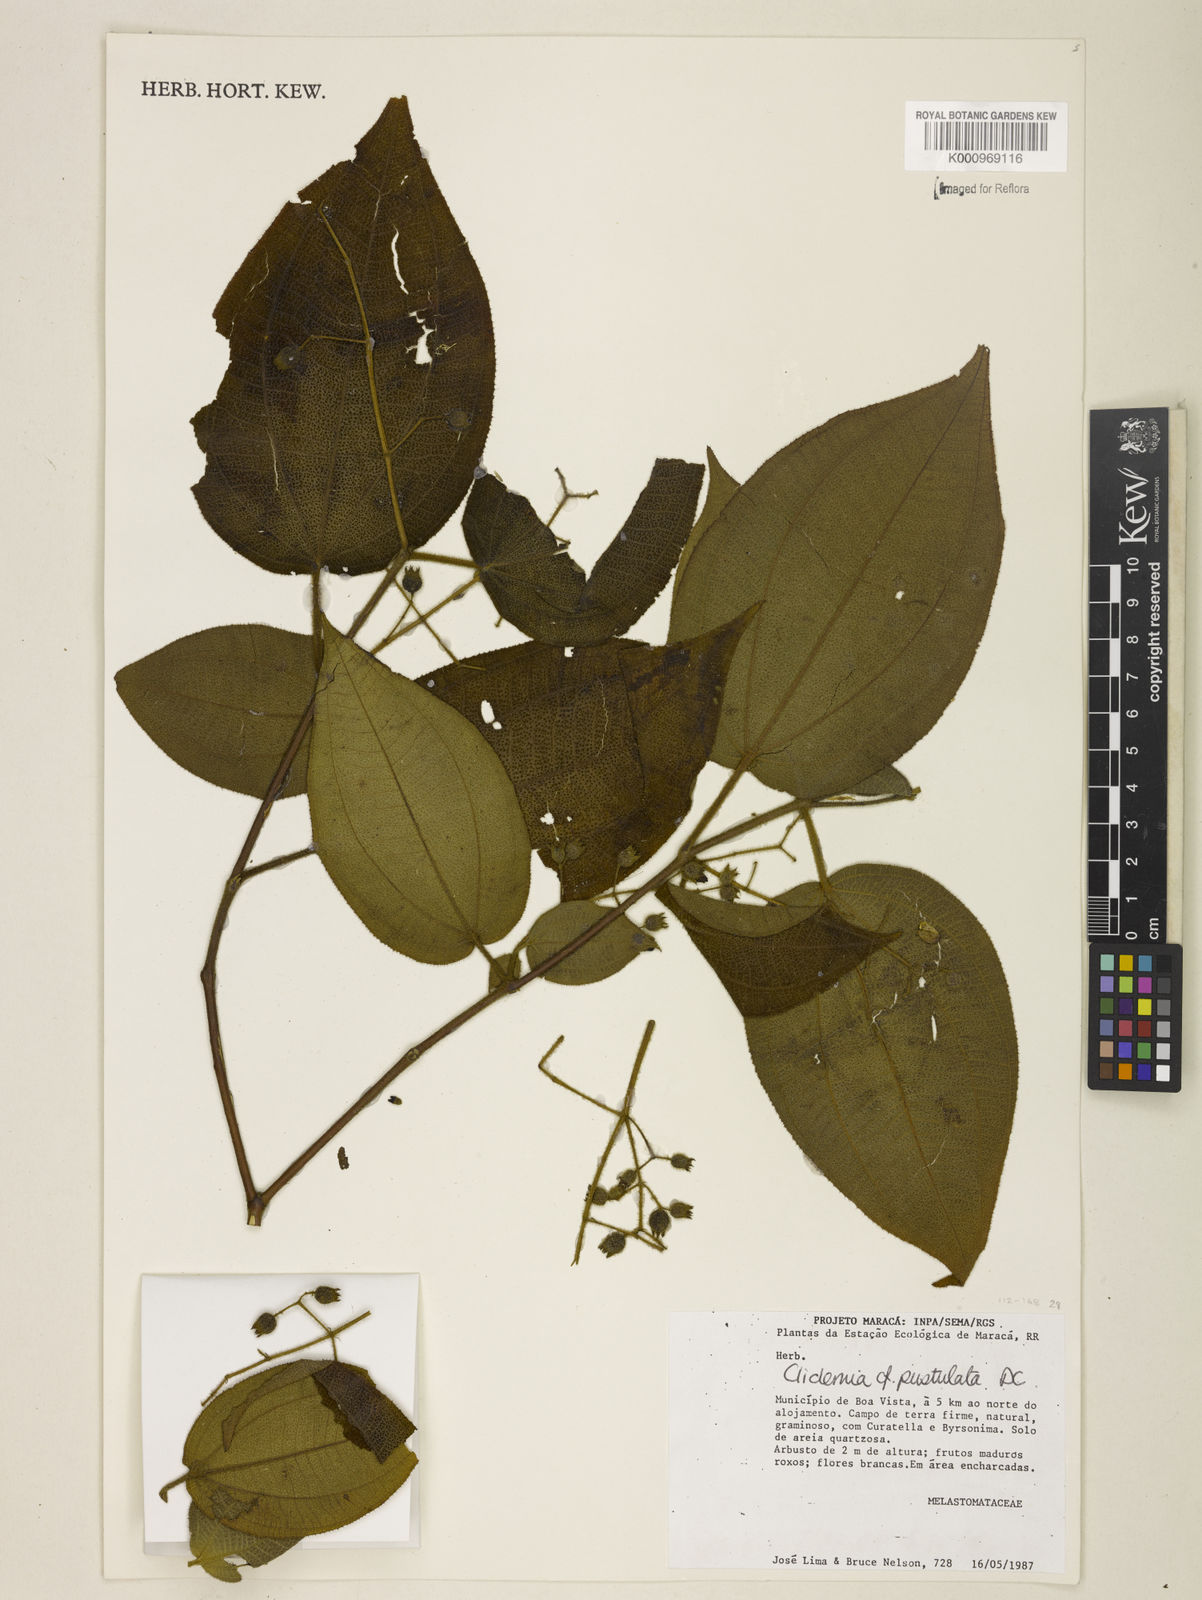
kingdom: Plantae
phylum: Tracheophyta
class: Magnoliopsida
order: Myrtales
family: Melastomataceae
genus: Miconia
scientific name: Miconia fenestrata
